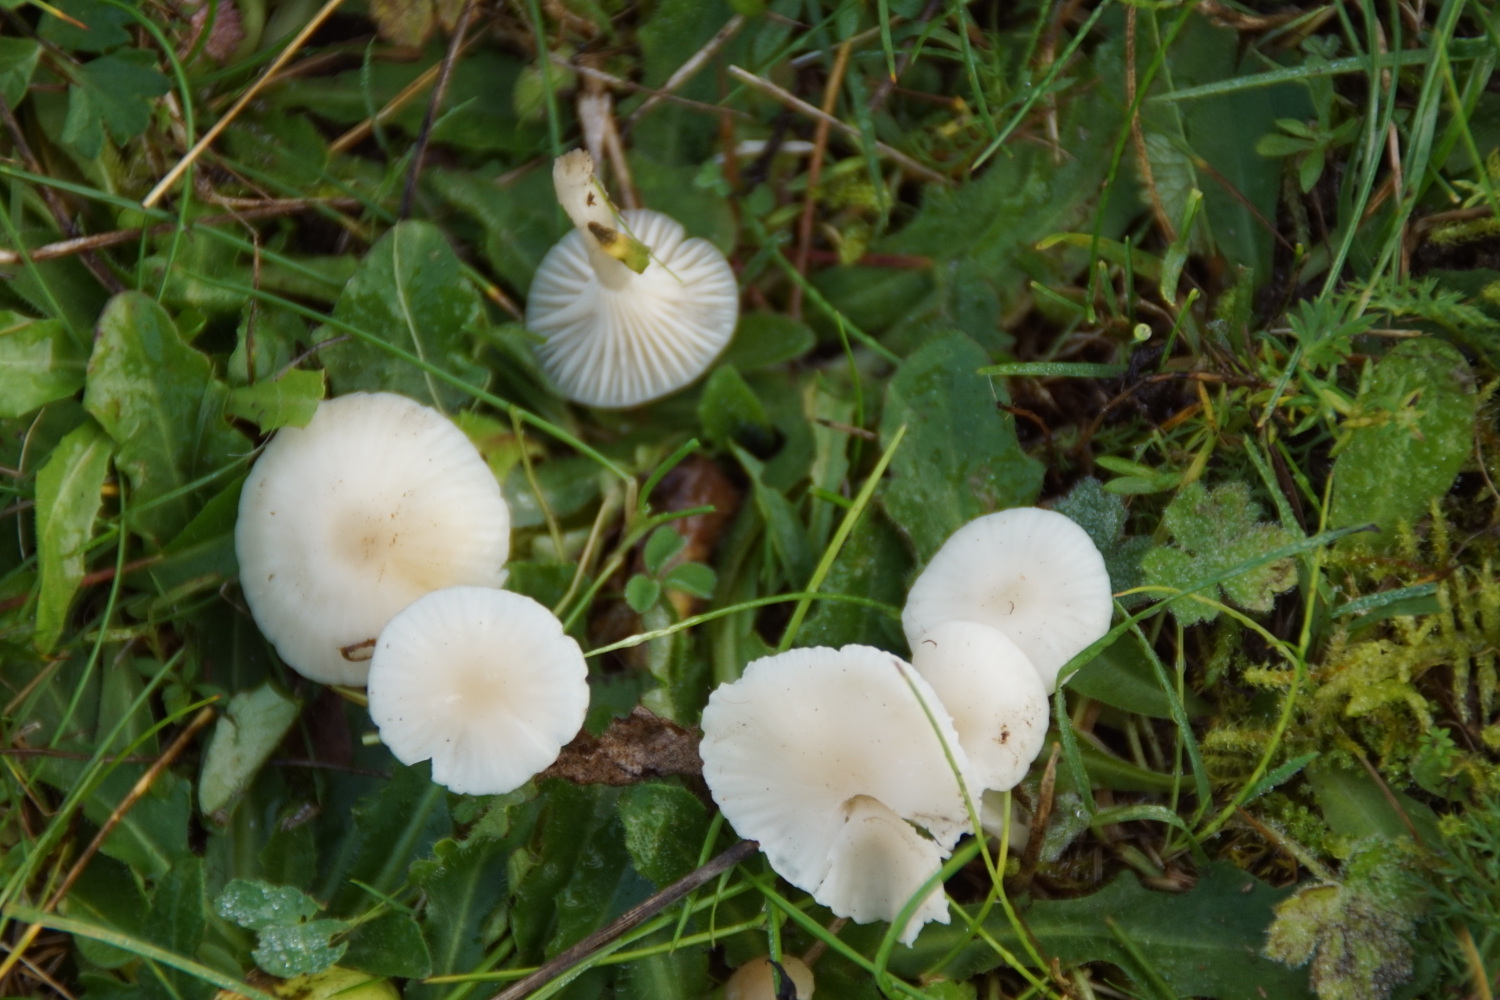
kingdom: Fungi
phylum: Basidiomycota
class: Agaricomycetes
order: Agaricales
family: Hygrophoraceae
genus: Cuphophyllus
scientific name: Cuphophyllus virgineus
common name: snehvid vokshat
